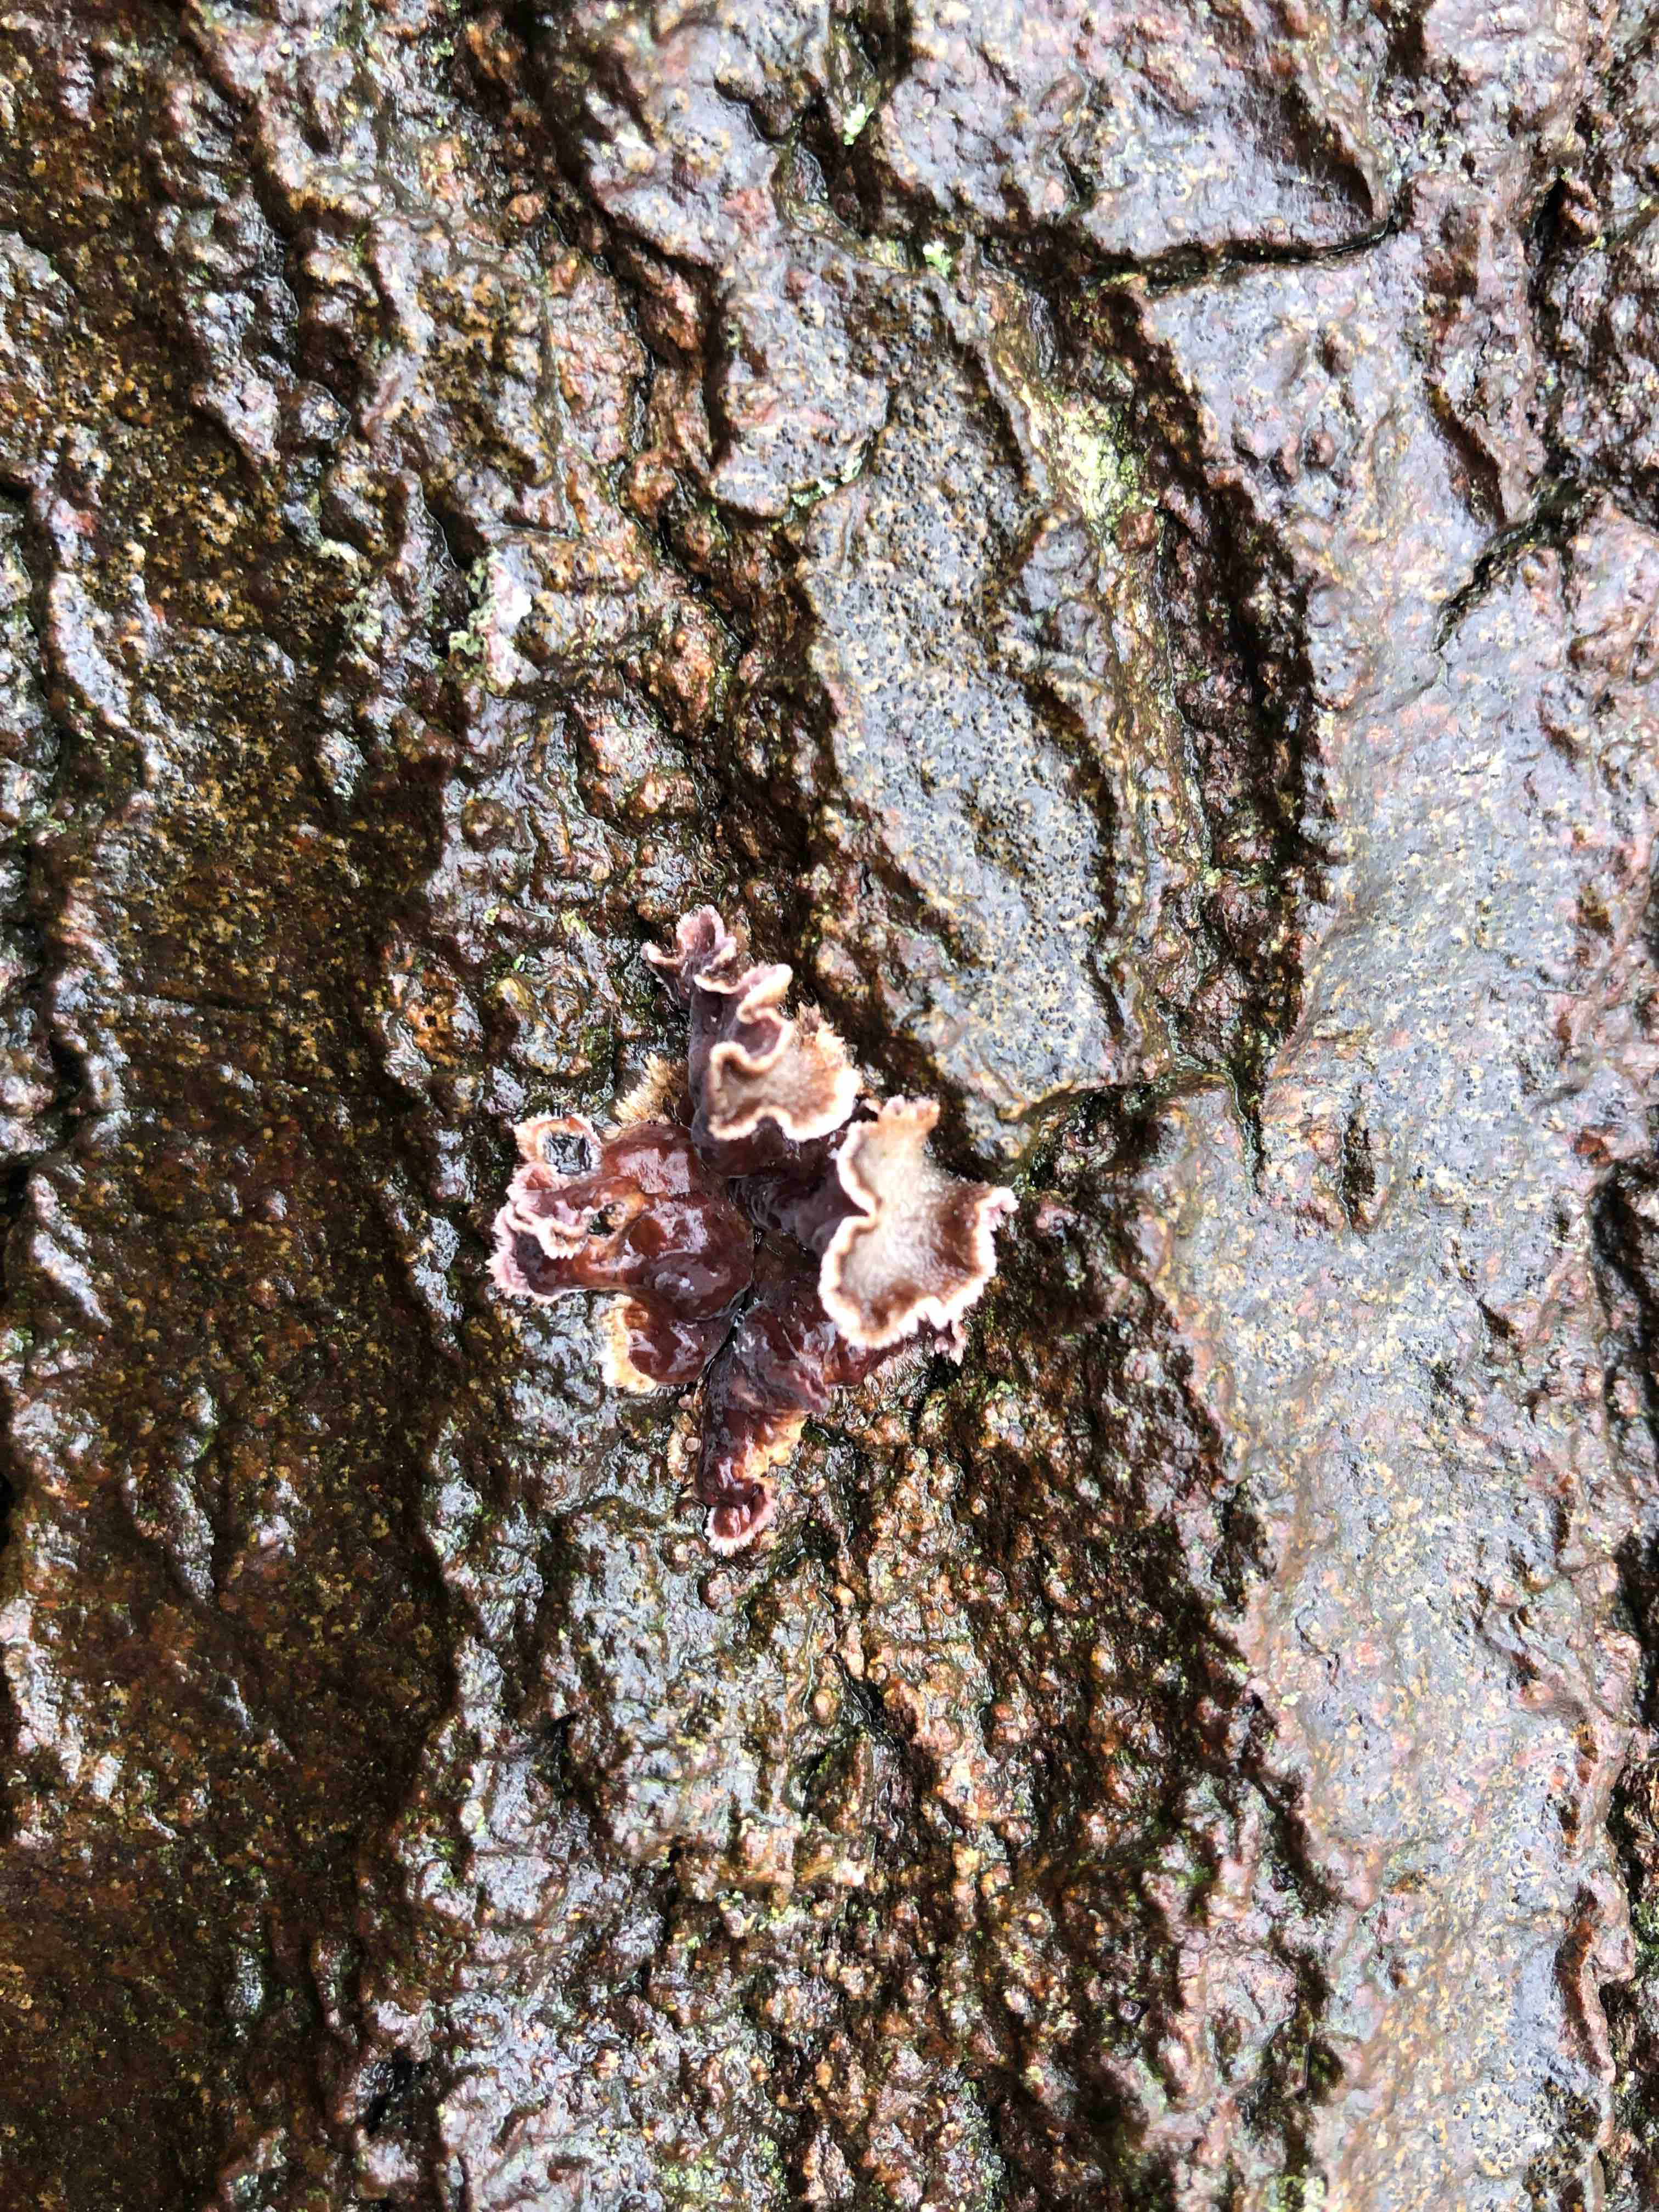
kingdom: Fungi
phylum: Basidiomycota
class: Agaricomycetes
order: Agaricales
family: Cyphellaceae
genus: Chondrostereum
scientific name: Chondrostereum purpureum
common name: purpurlædersvamp
